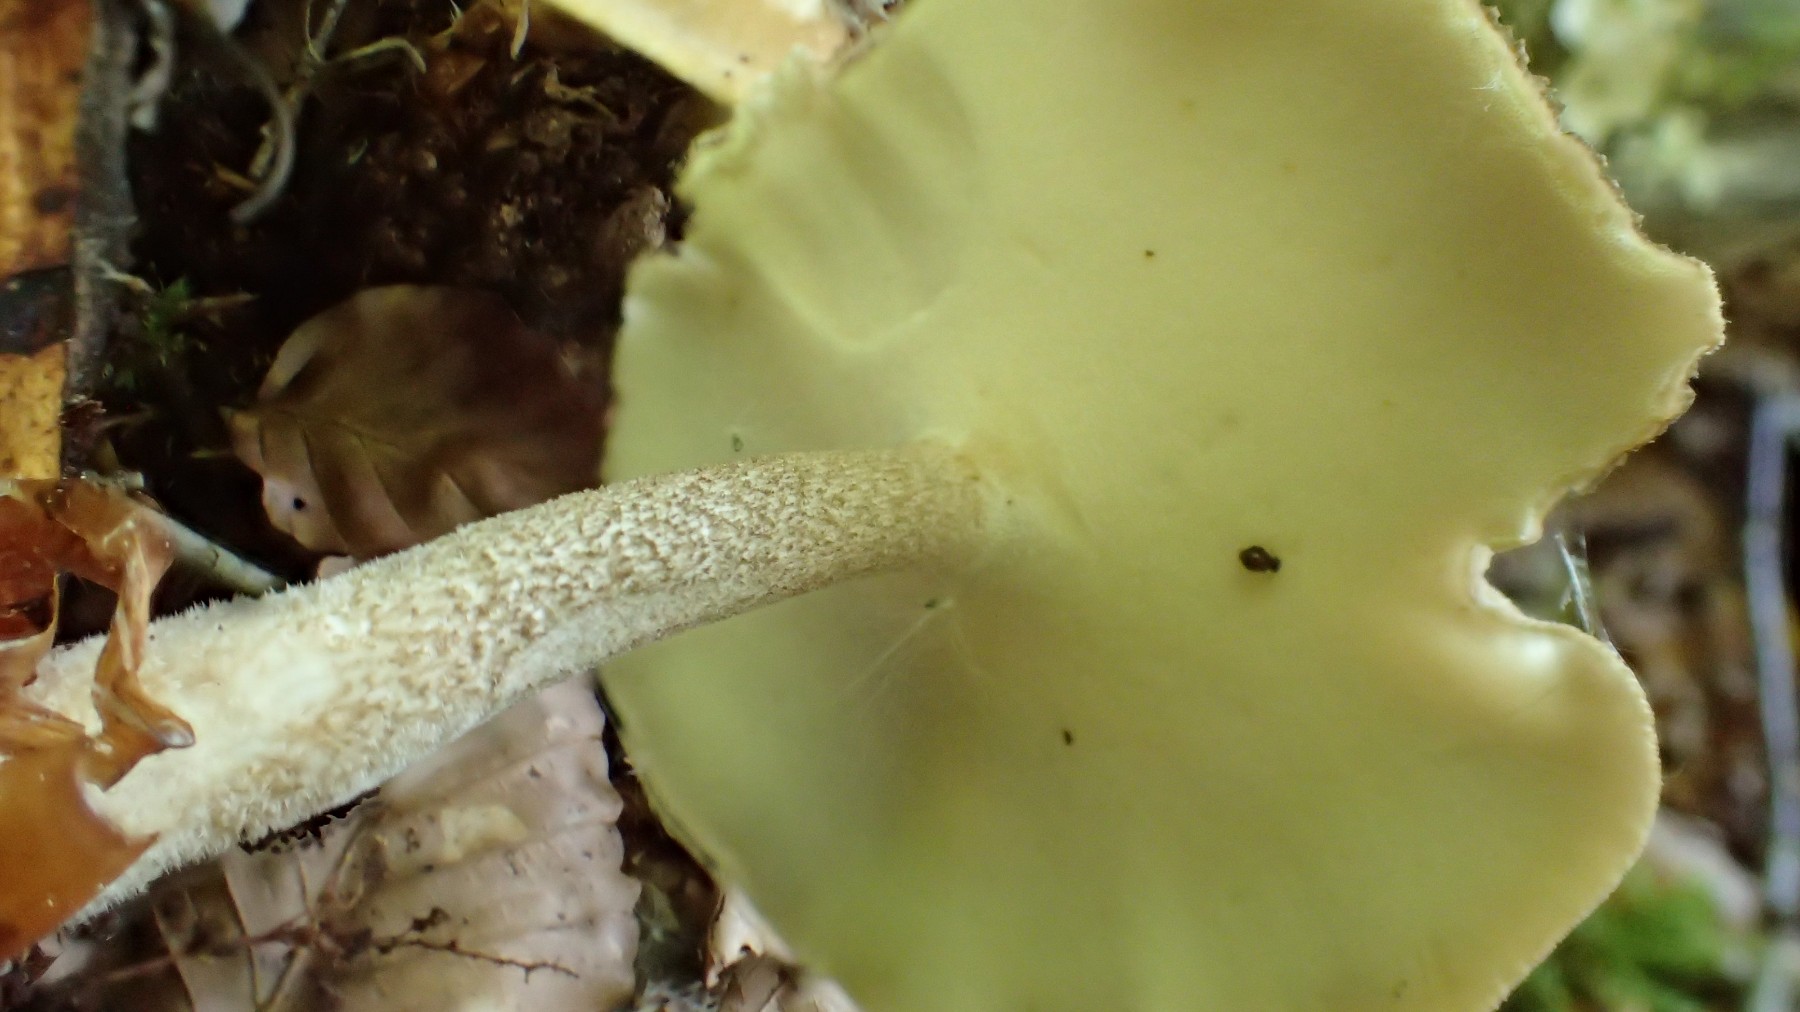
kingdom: Fungi
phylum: Basidiomycota
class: Agaricomycetes
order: Polyporales
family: Polyporaceae
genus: Lentinus
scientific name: Lentinus substrictus
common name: forårs-stilkporesvamp
